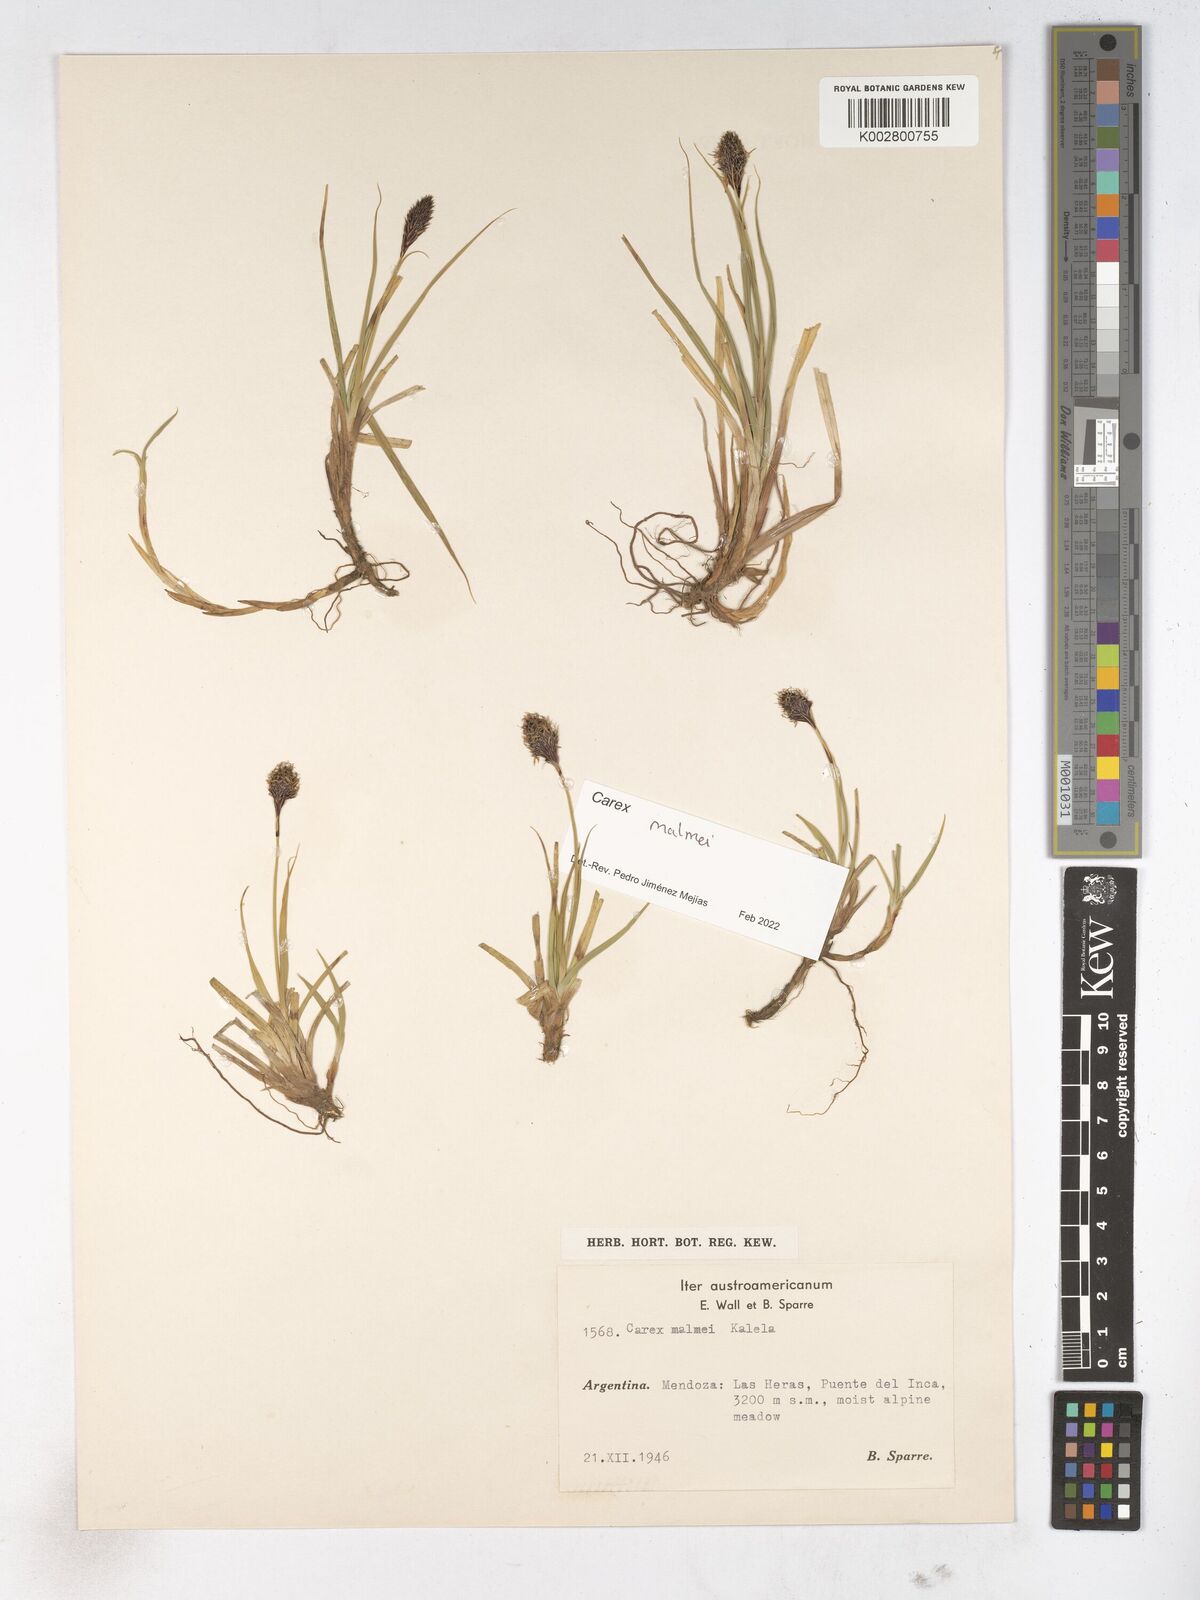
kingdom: Plantae
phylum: Tracheophyta
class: Liliopsida
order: Poales
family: Cyperaceae
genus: Carex
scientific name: Carex malmei
